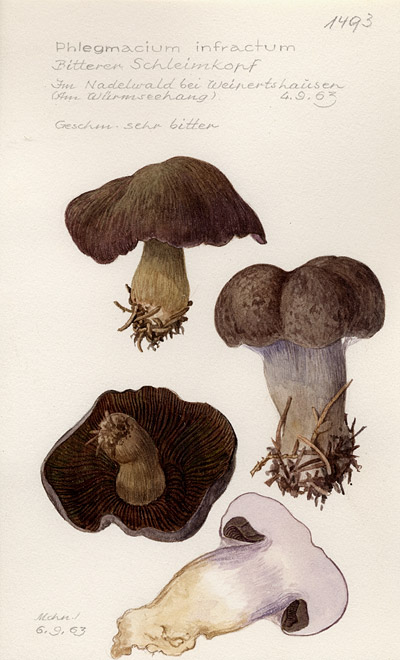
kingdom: Fungi
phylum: Basidiomycota
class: Agaricomycetes
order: Agaricales
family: Cortinariaceae
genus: Cortinarius
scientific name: Cortinarius infractus
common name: Bitter webcap
